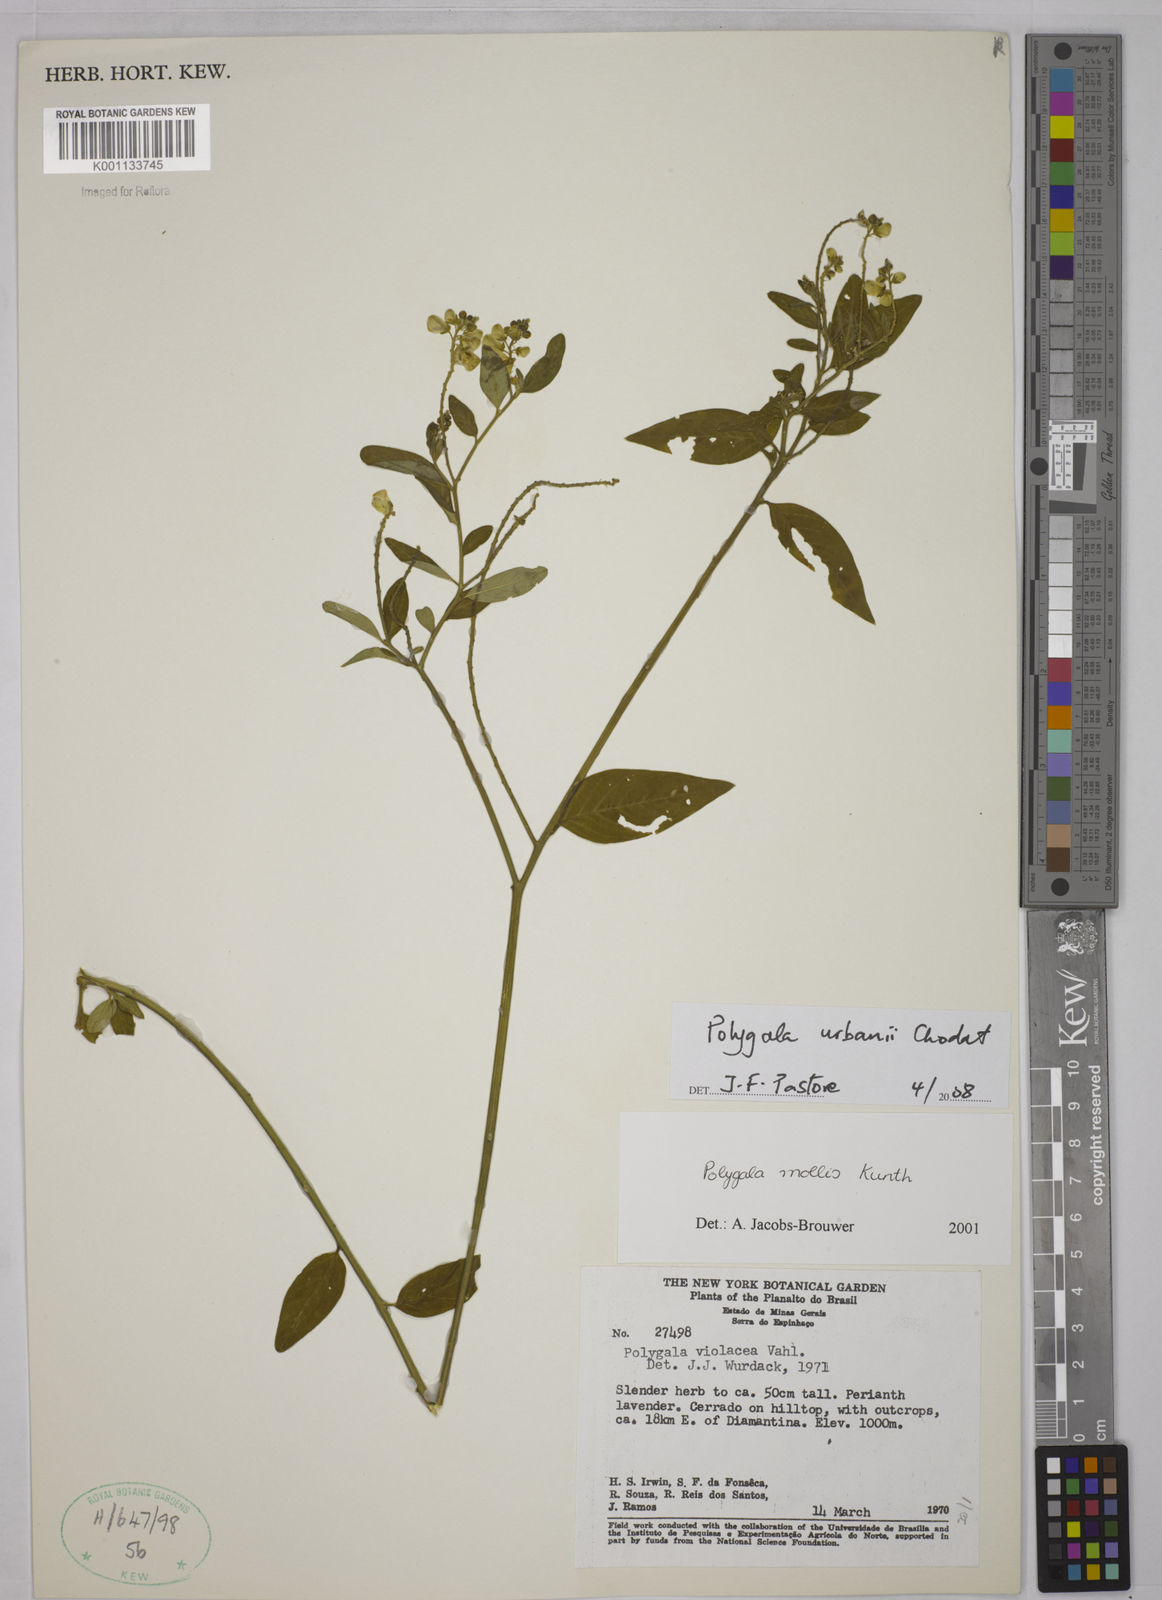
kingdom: Plantae
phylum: Tracheophyta
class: Magnoliopsida
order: Fabales
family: Polygalaceae
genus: Asemeia
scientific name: Asemeia monninoides
